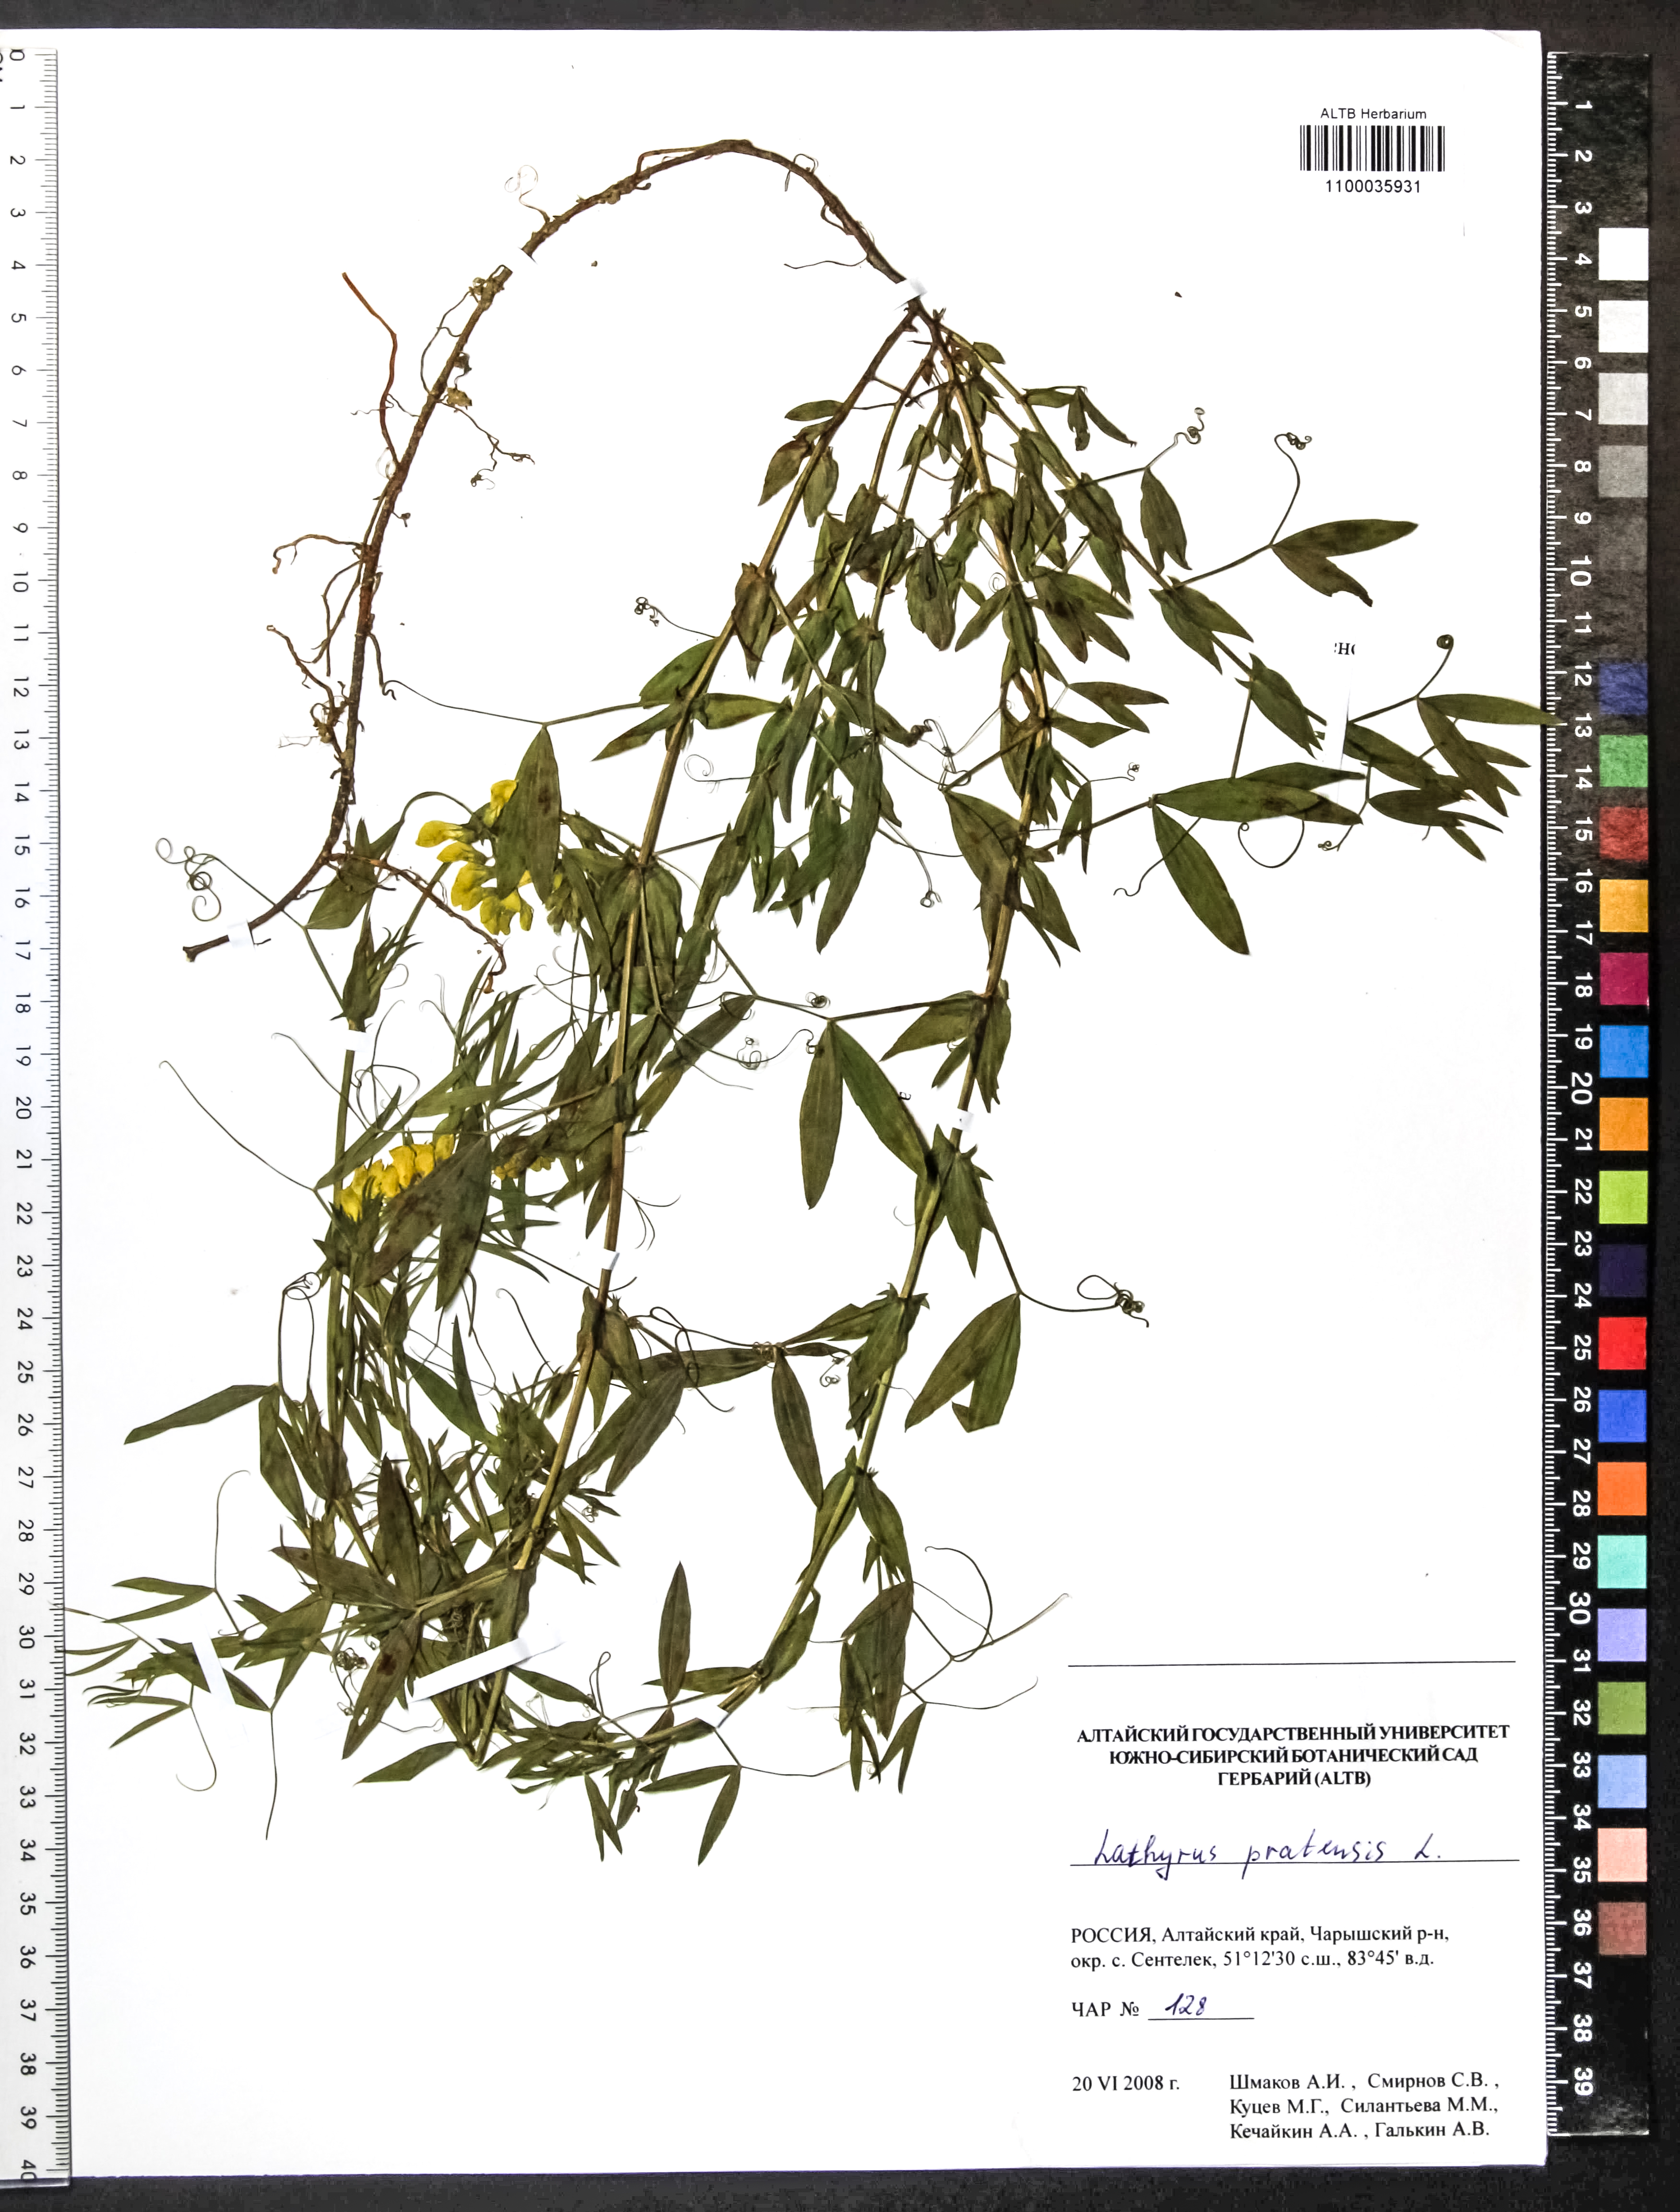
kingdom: Plantae
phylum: Tracheophyta
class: Magnoliopsida
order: Fabales
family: Fabaceae
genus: Lathyrus
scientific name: Lathyrus pratensis
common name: Meadow vetchling
